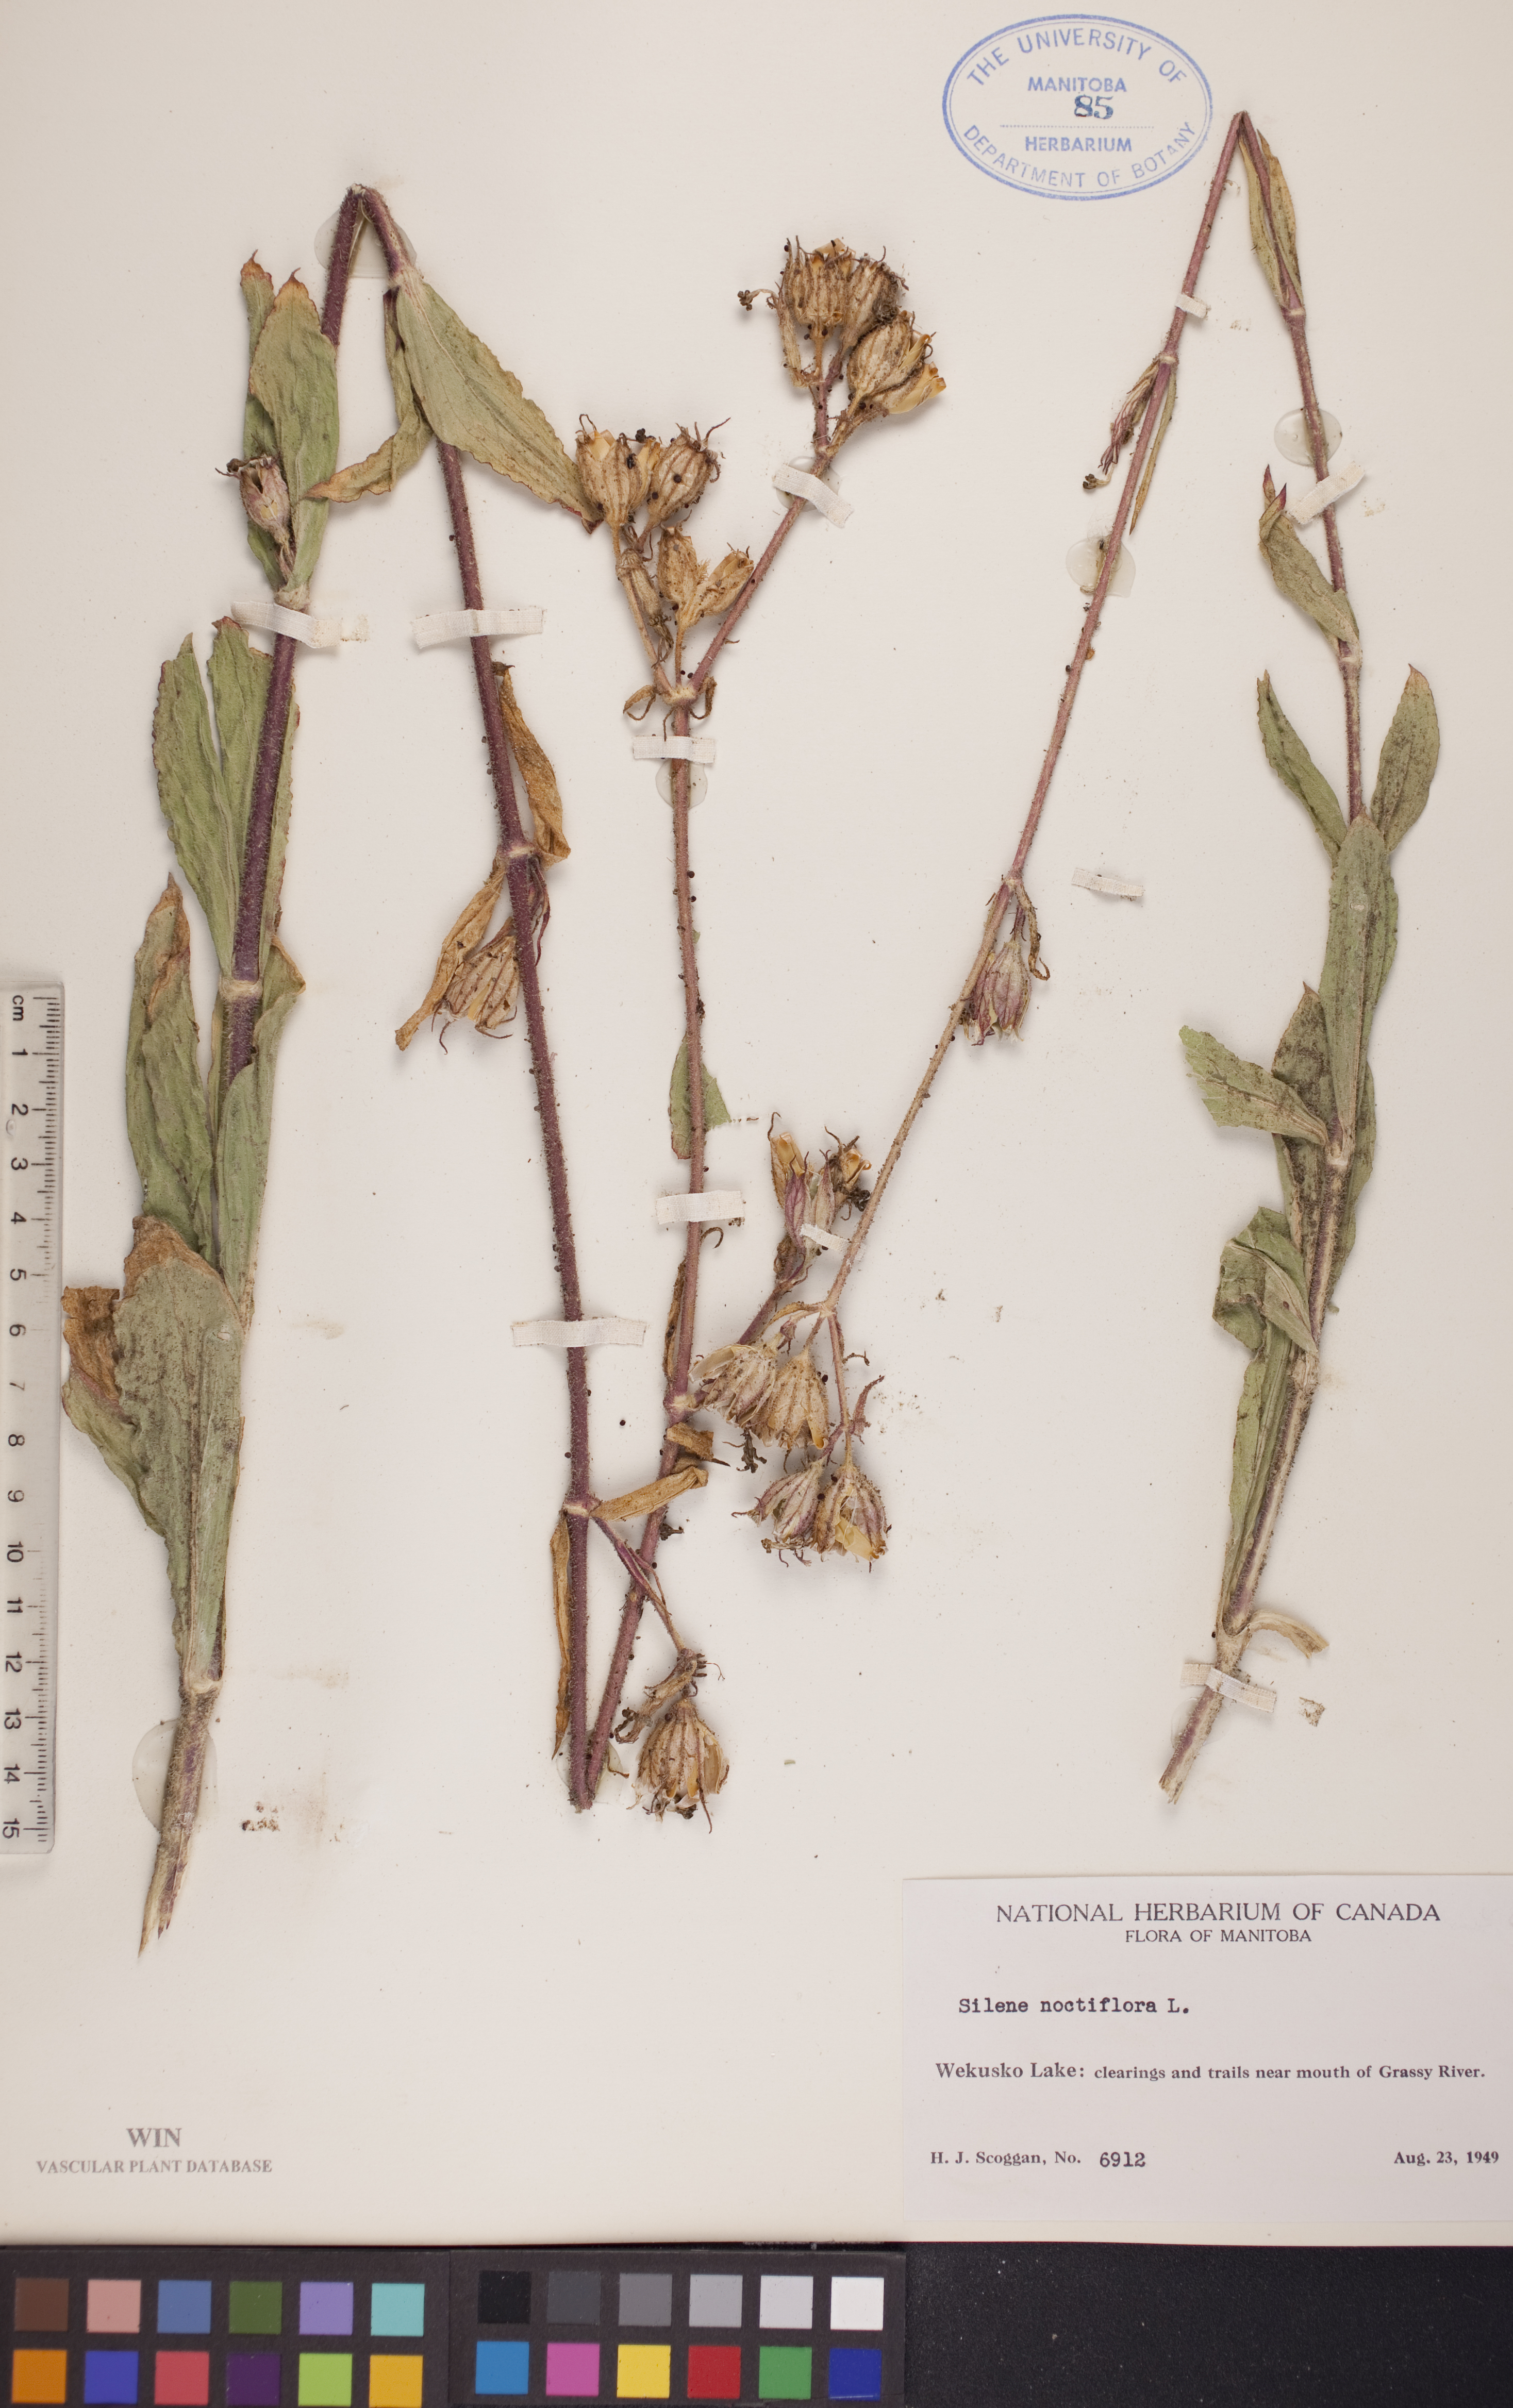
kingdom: Plantae
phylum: Tracheophyta
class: Magnoliopsida
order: Caryophyllales
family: Caryophyllaceae
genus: Silene
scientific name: Silene noctiflora
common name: Night-flowering catchfly
